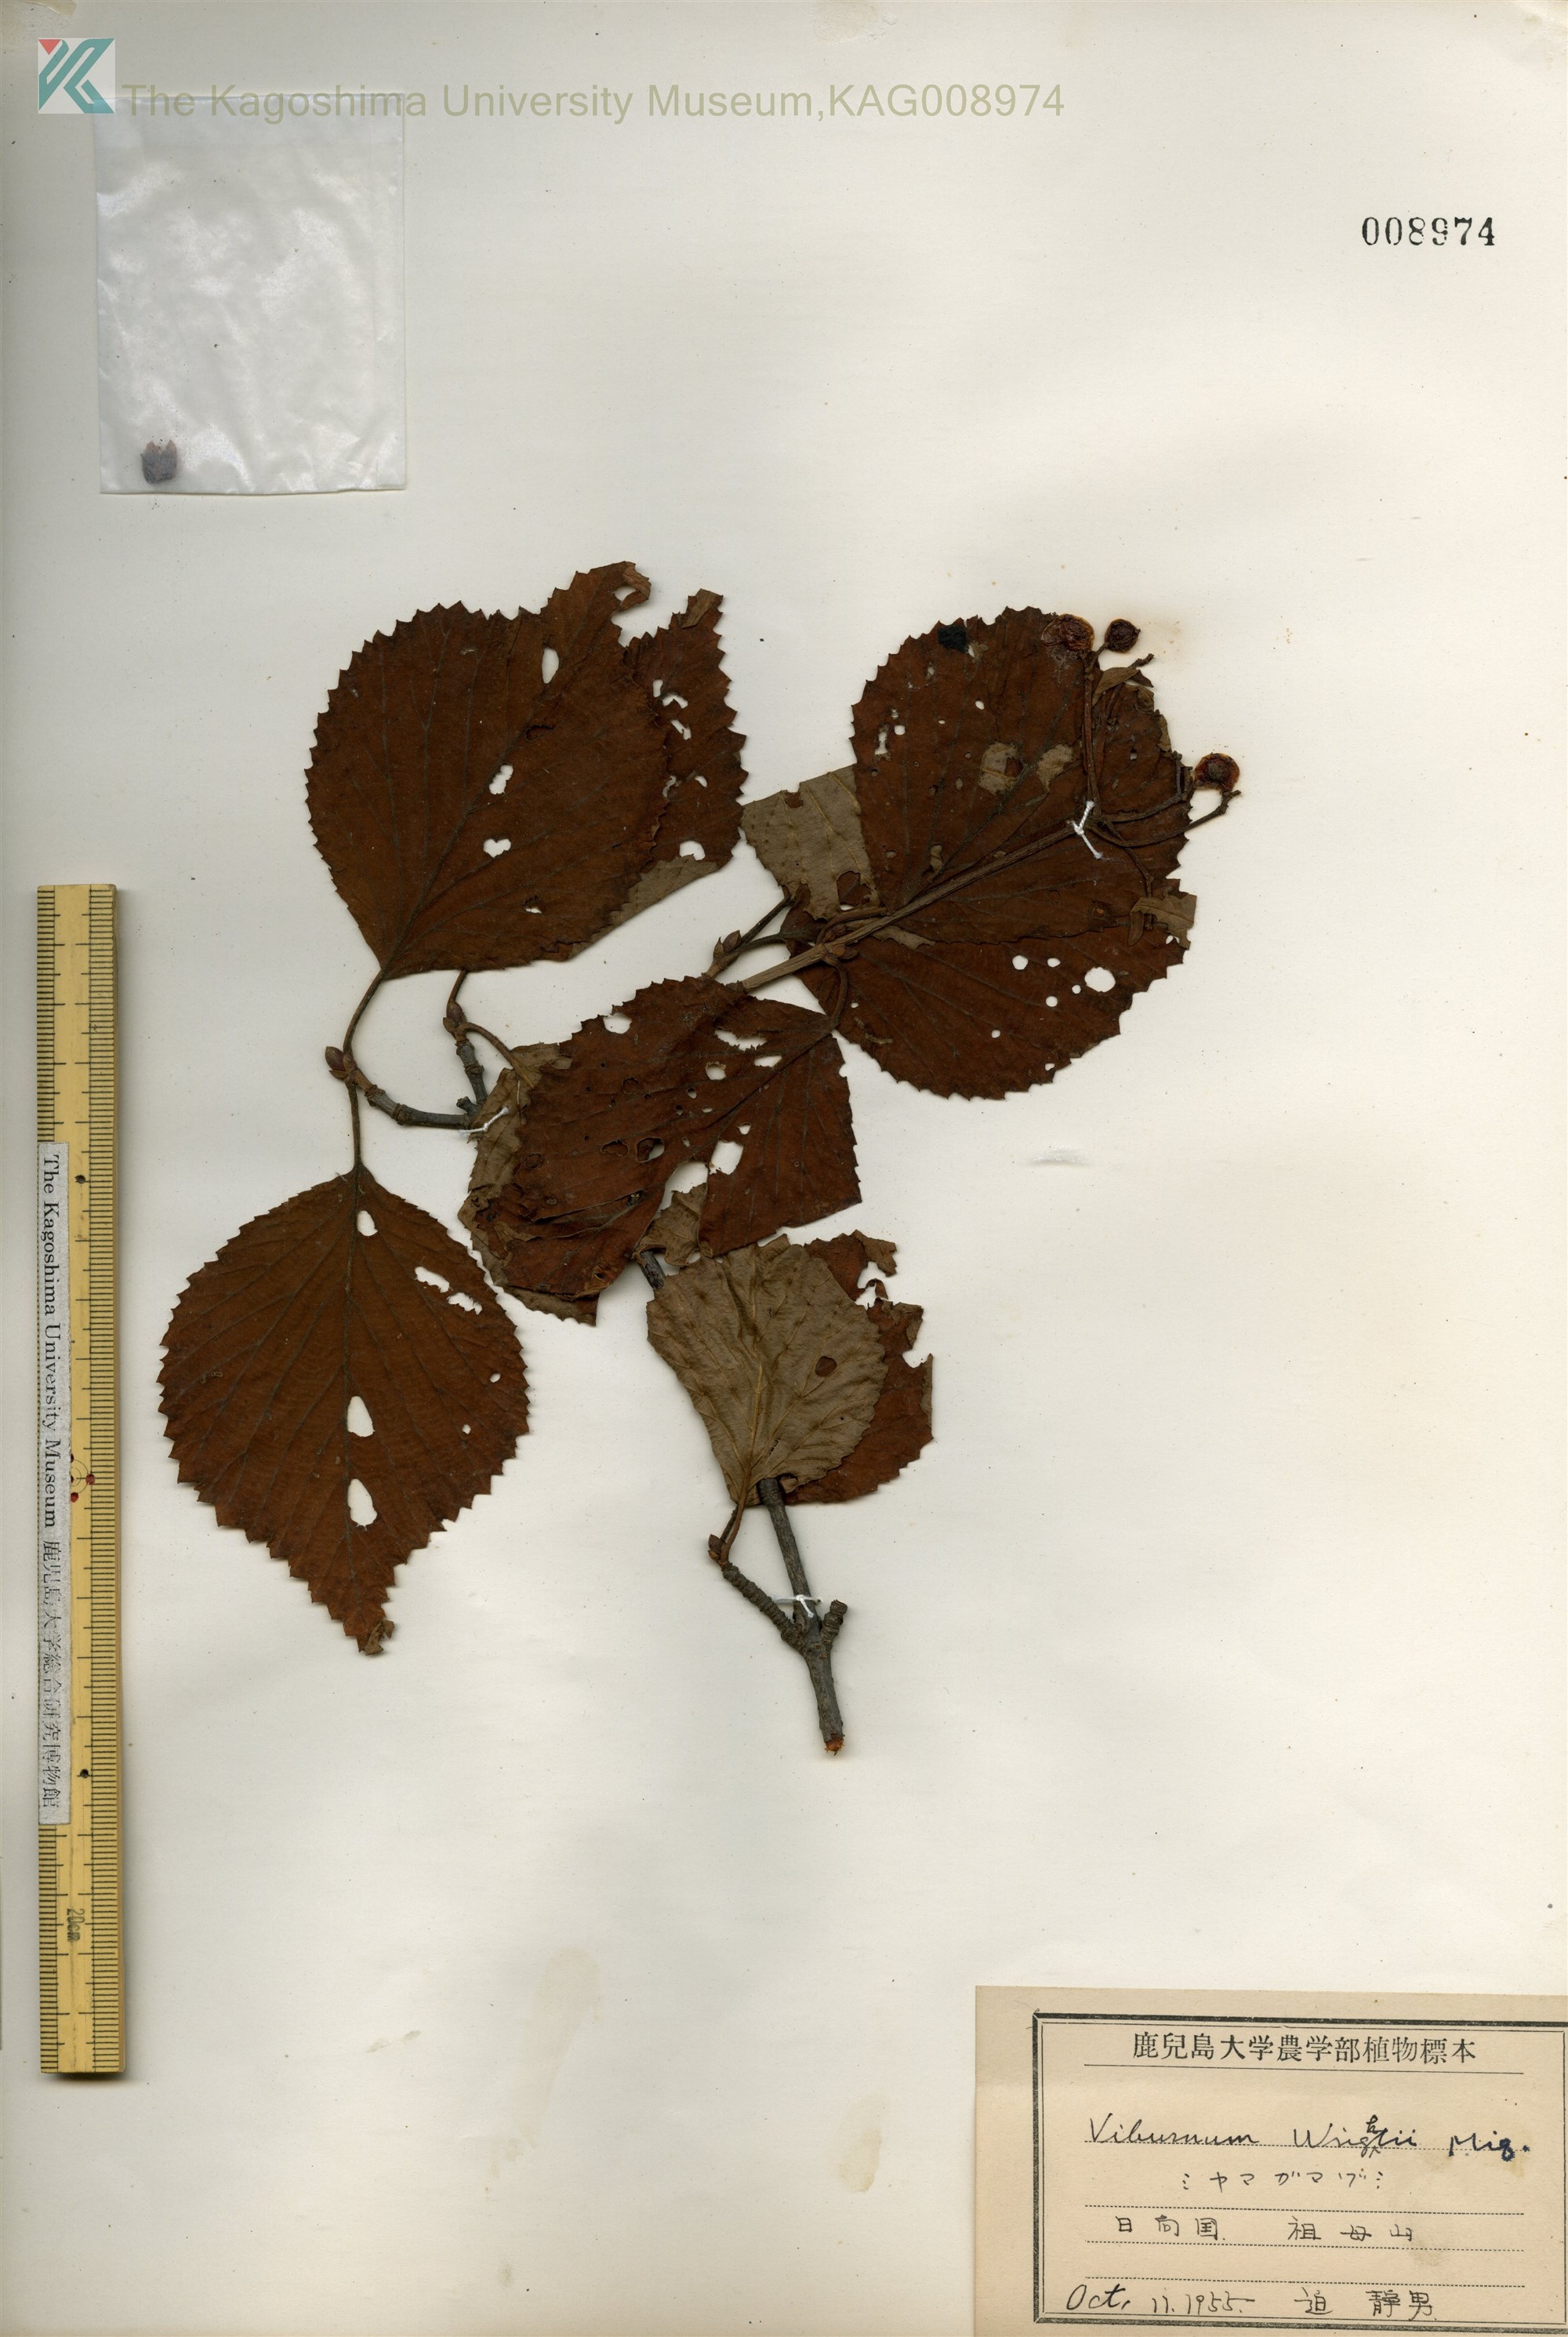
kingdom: Plantae
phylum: Tracheophyta
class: Magnoliopsida
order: Dipsacales
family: Viburnaceae
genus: Viburnum
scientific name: Viburnum wrightii
